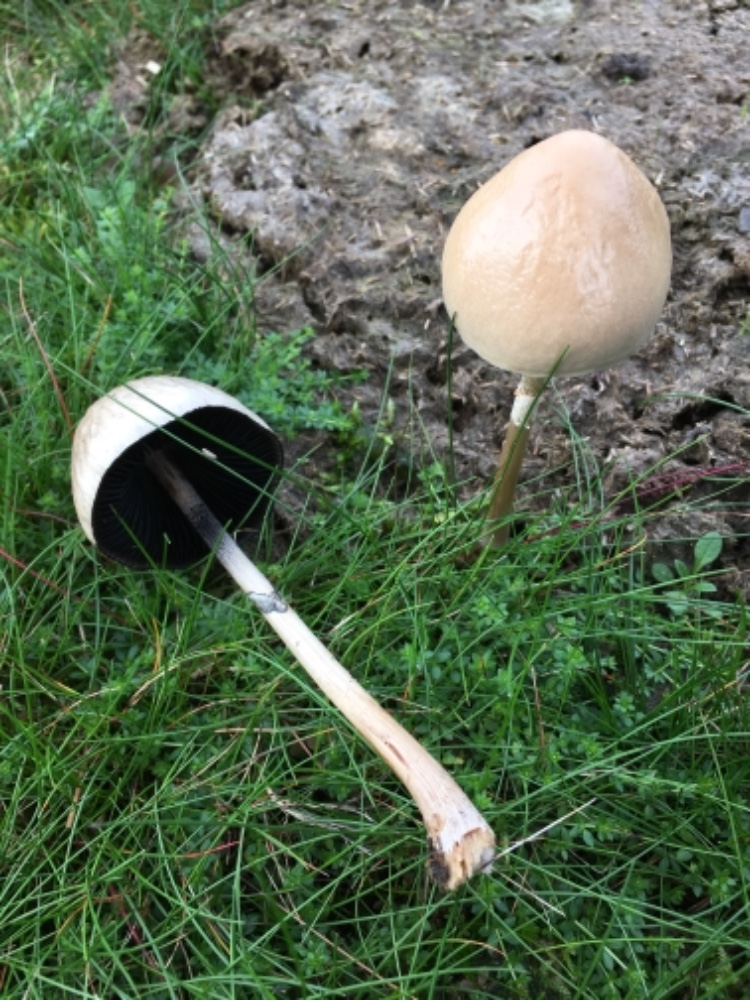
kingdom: Fungi
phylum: Basidiomycota
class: Agaricomycetes
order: Agaricales
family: Bolbitiaceae
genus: Panaeolus
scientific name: Panaeolus semiovatus
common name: ring-glanshat
